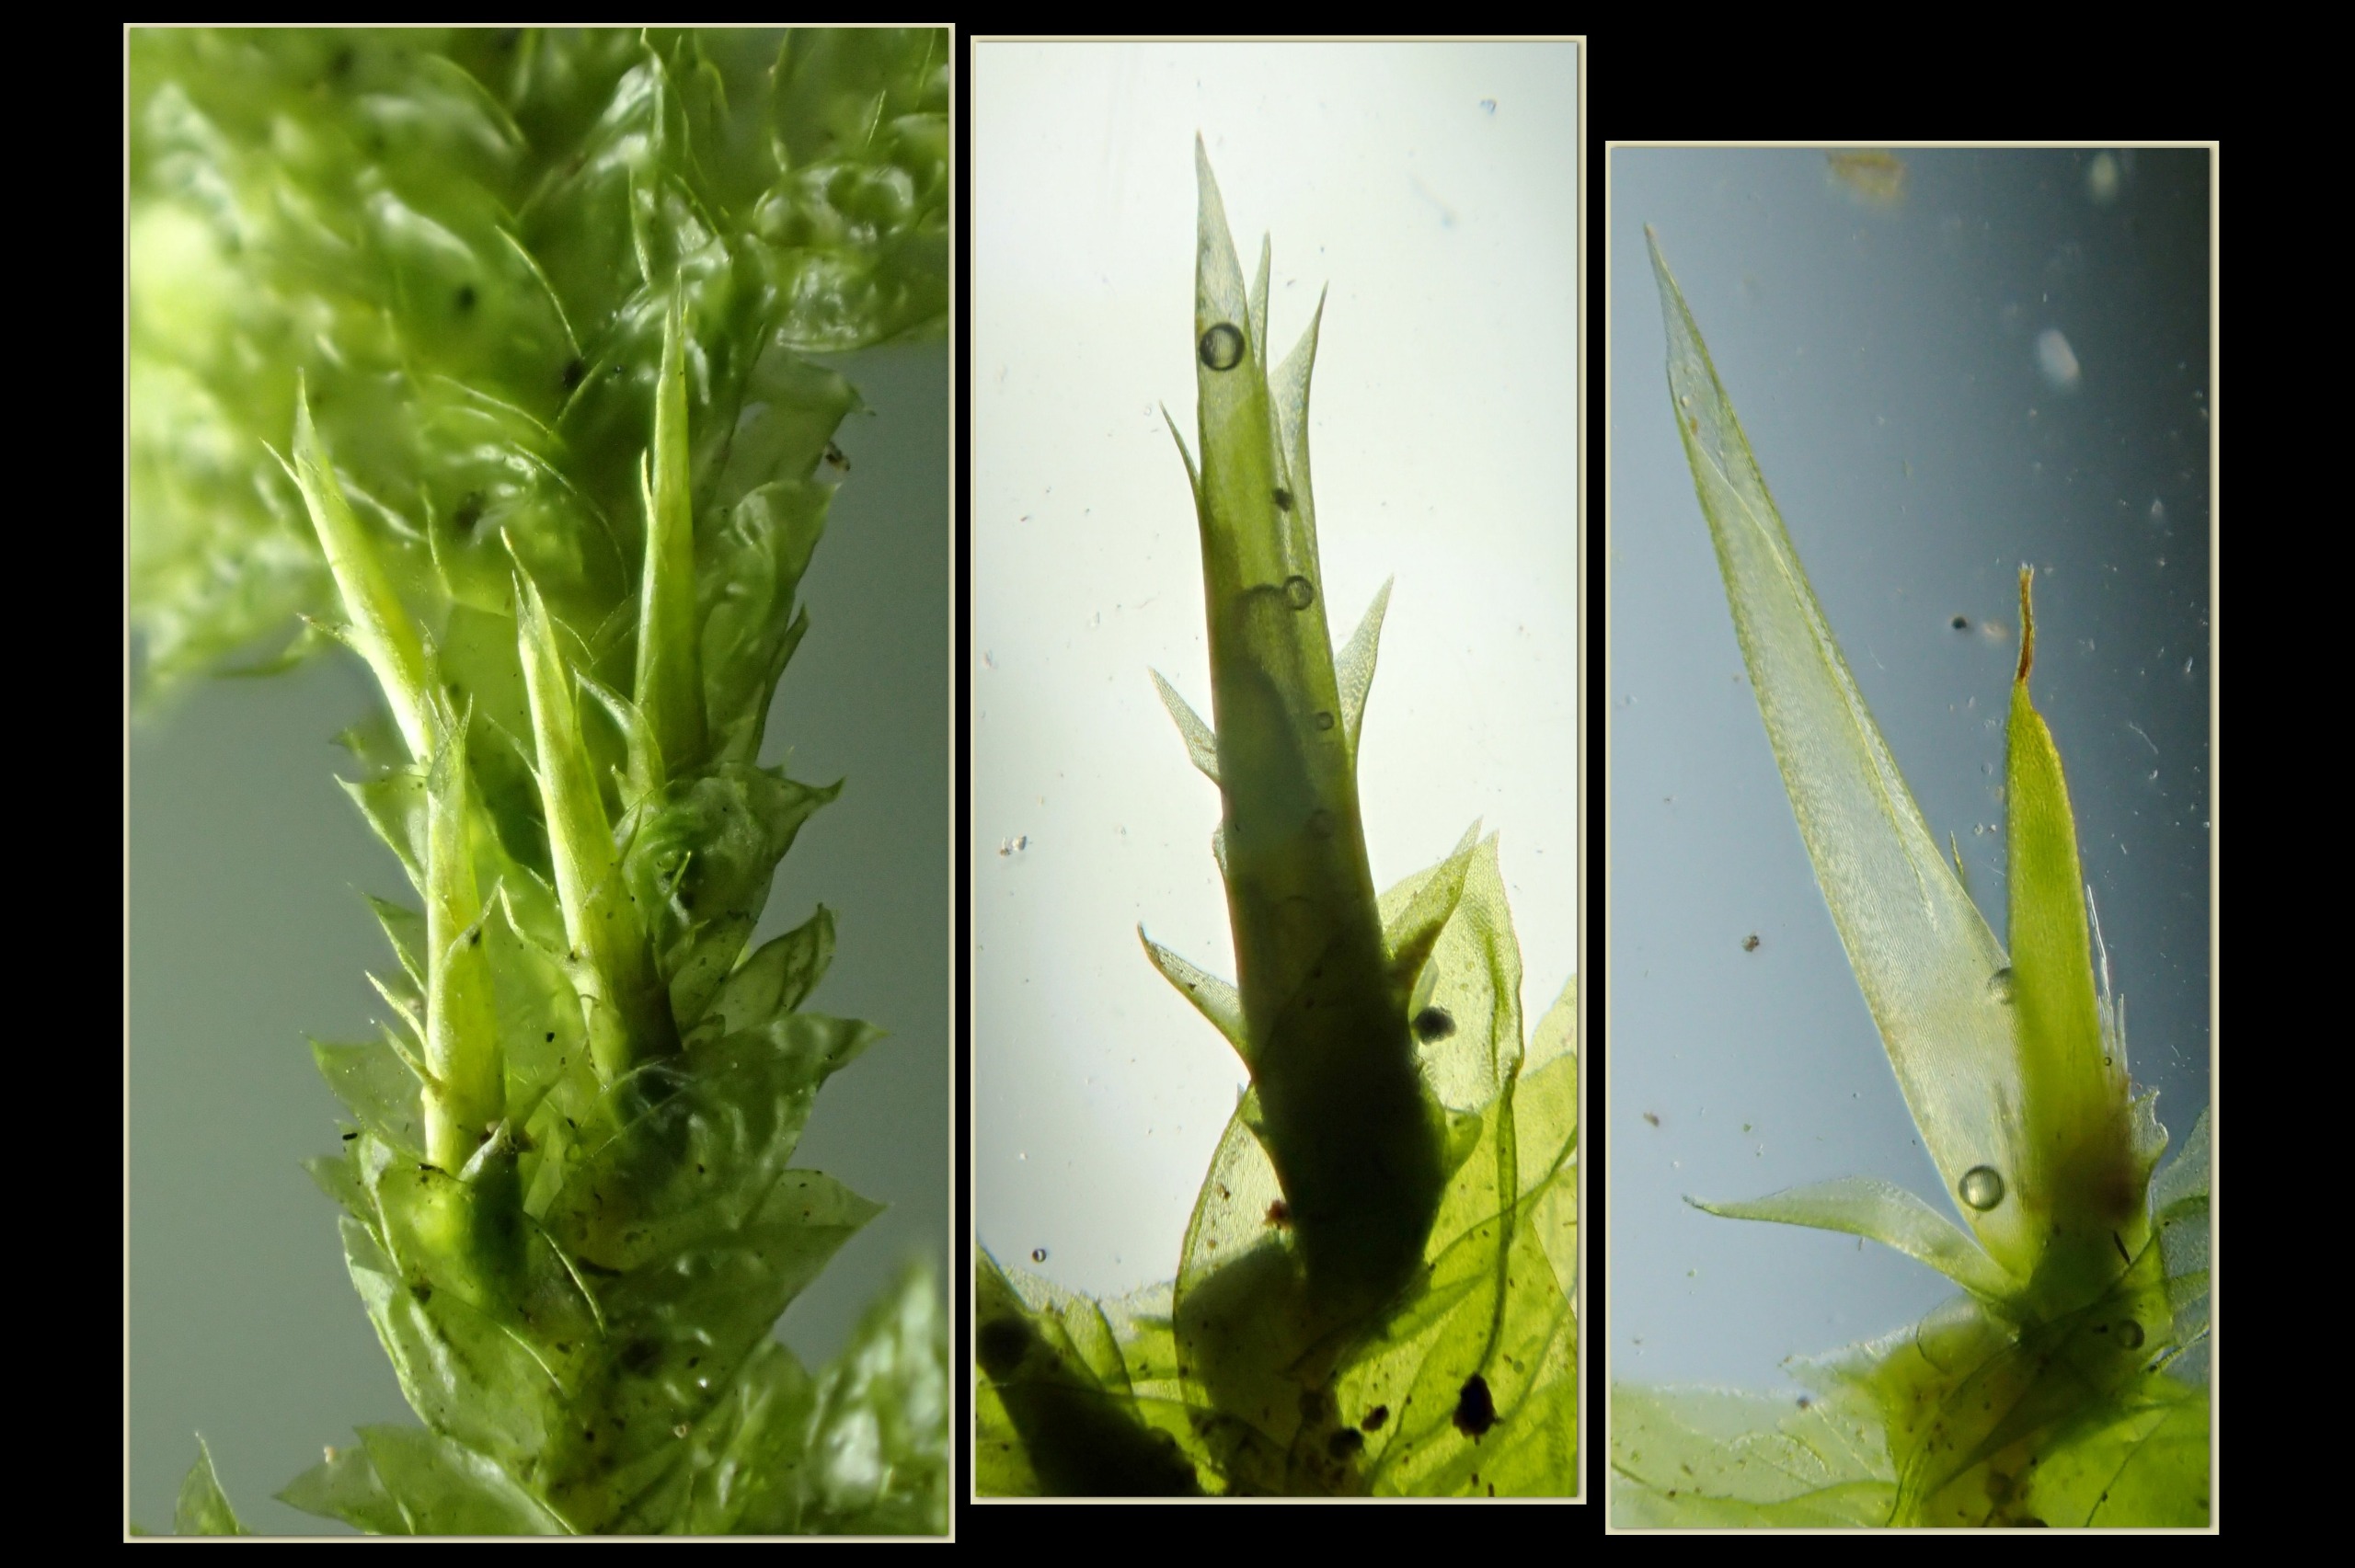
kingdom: Plantae
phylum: Bryophyta
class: Bryopsida
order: Hypnales
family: Neckeraceae
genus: Neckera
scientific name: Neckera pumila
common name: Lav fladmos
